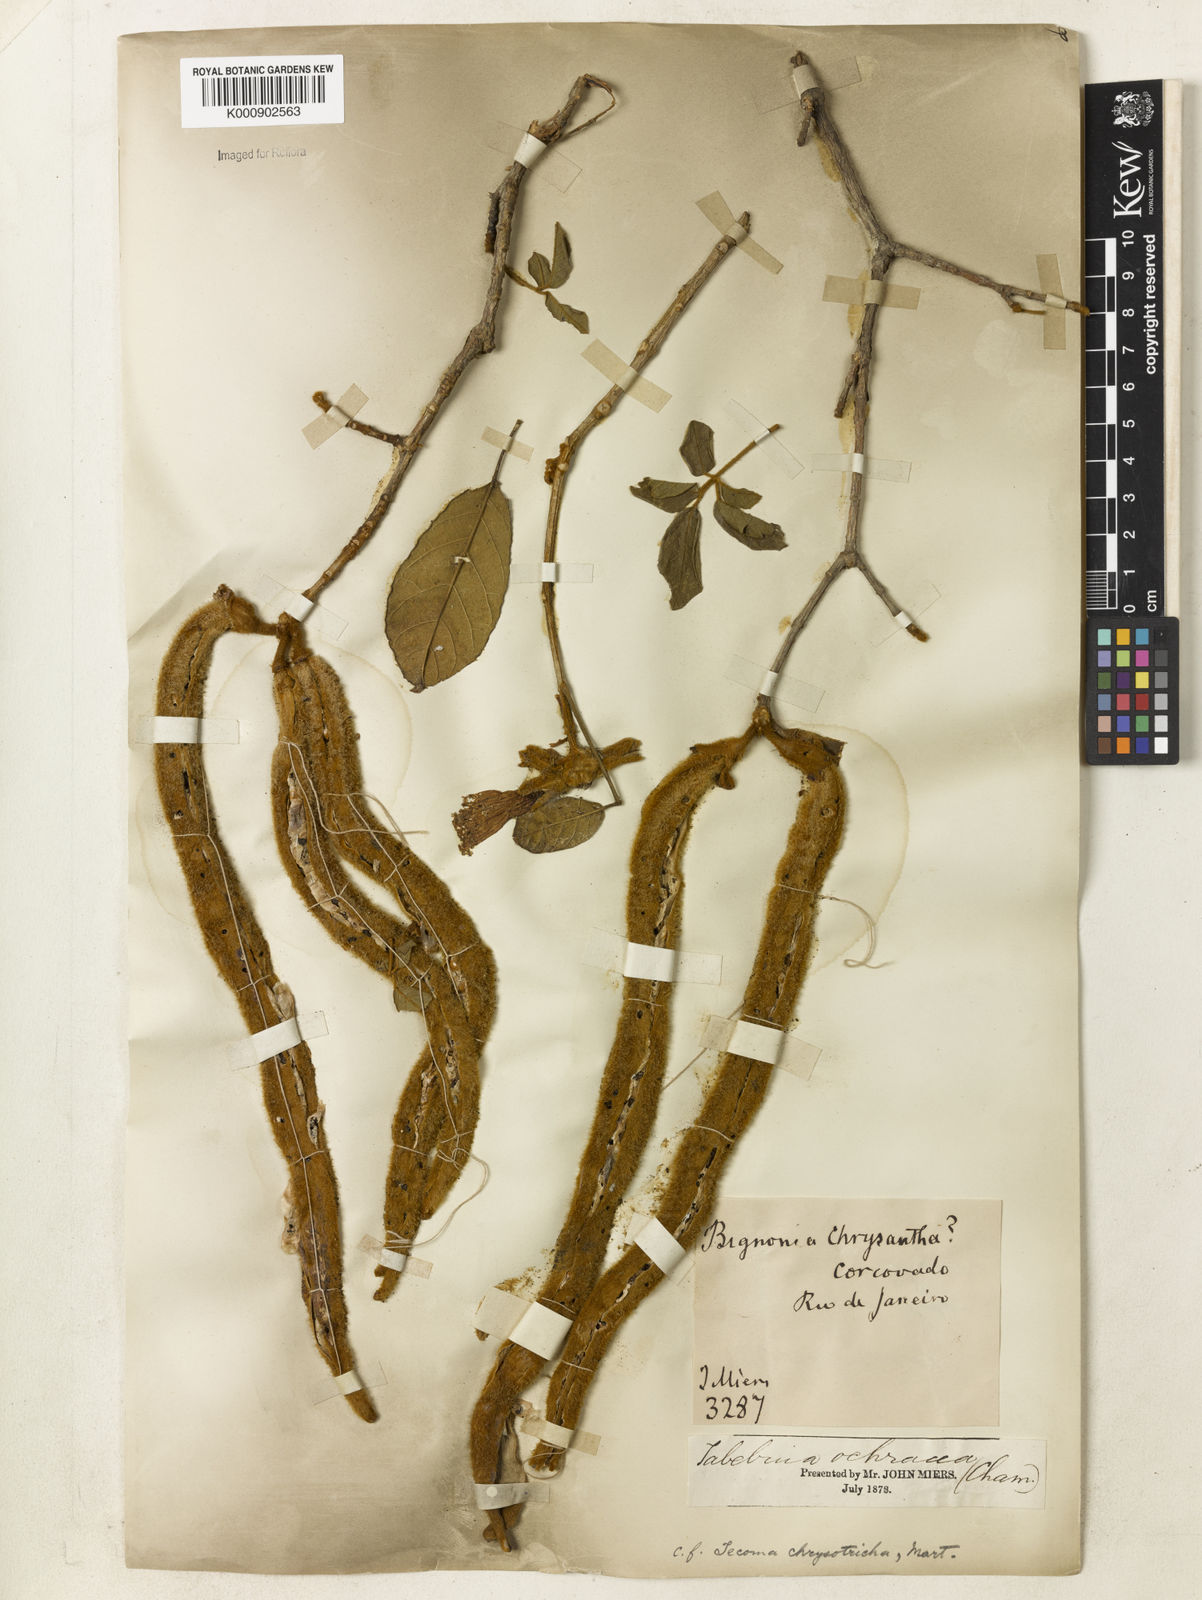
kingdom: Plantae
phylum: Tracheophyta
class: Magnoliopsida
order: Lamiales
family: Bignoniaceae
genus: Handroanthus
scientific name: Handroanthus chrysotrichus
